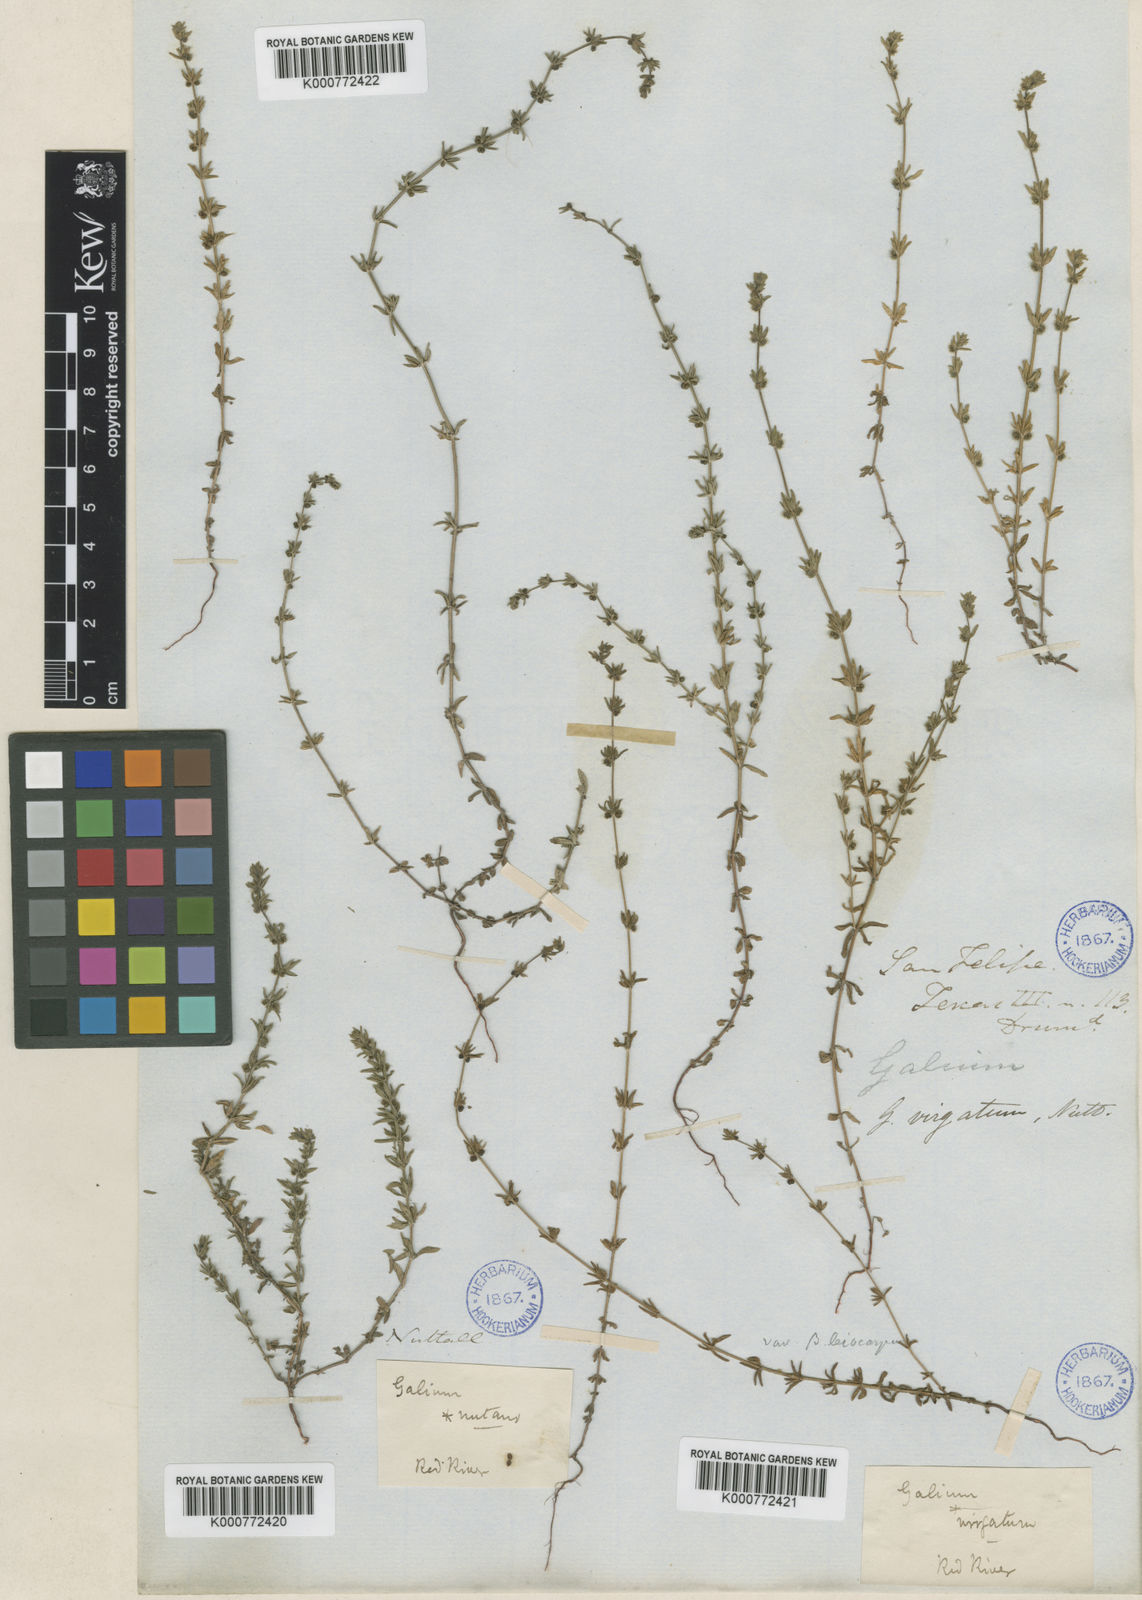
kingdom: Plantae
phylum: Tracheophyta
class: Magnoliopsida
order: Gentianales
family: Rubiaceae
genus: Galium
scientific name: Galium virgatum
